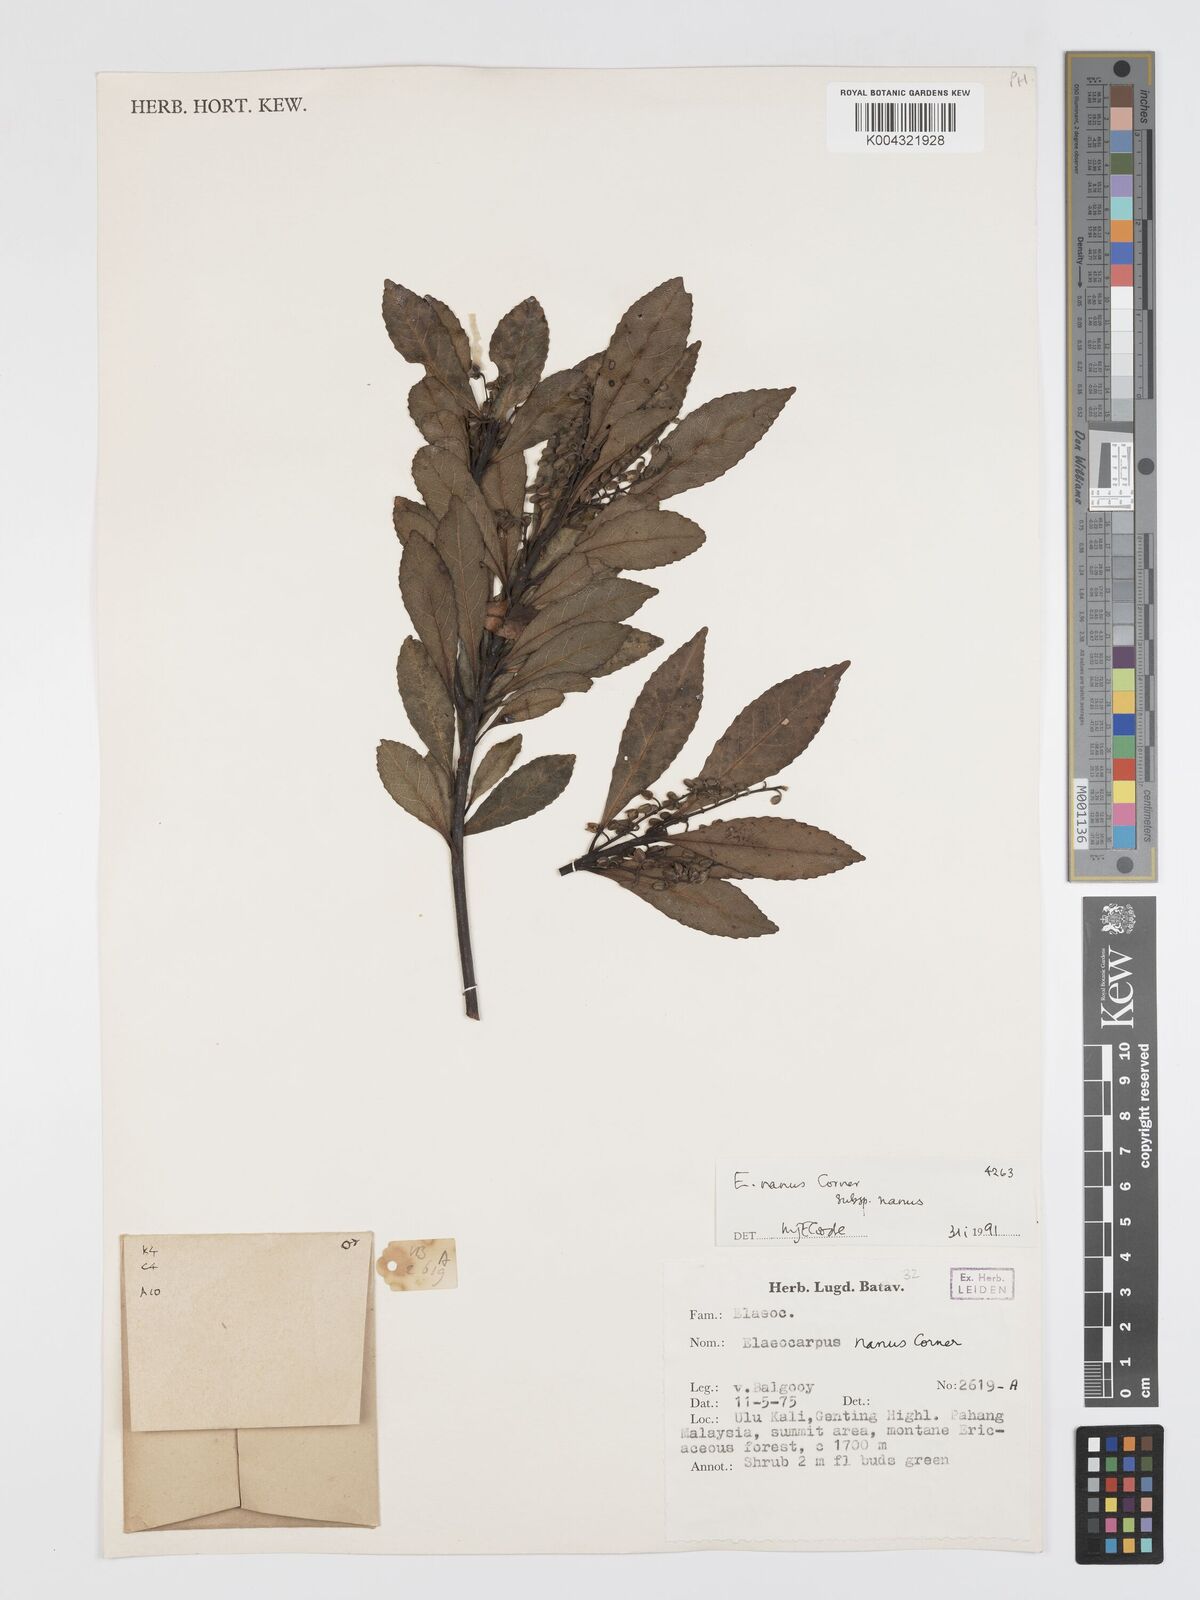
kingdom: Plantae
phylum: Tracheophyta
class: Magnoliopsida
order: Oxalidales
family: Elaeocarpaceae
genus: Elaeocarpus
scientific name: Elaeocarpus nanus
